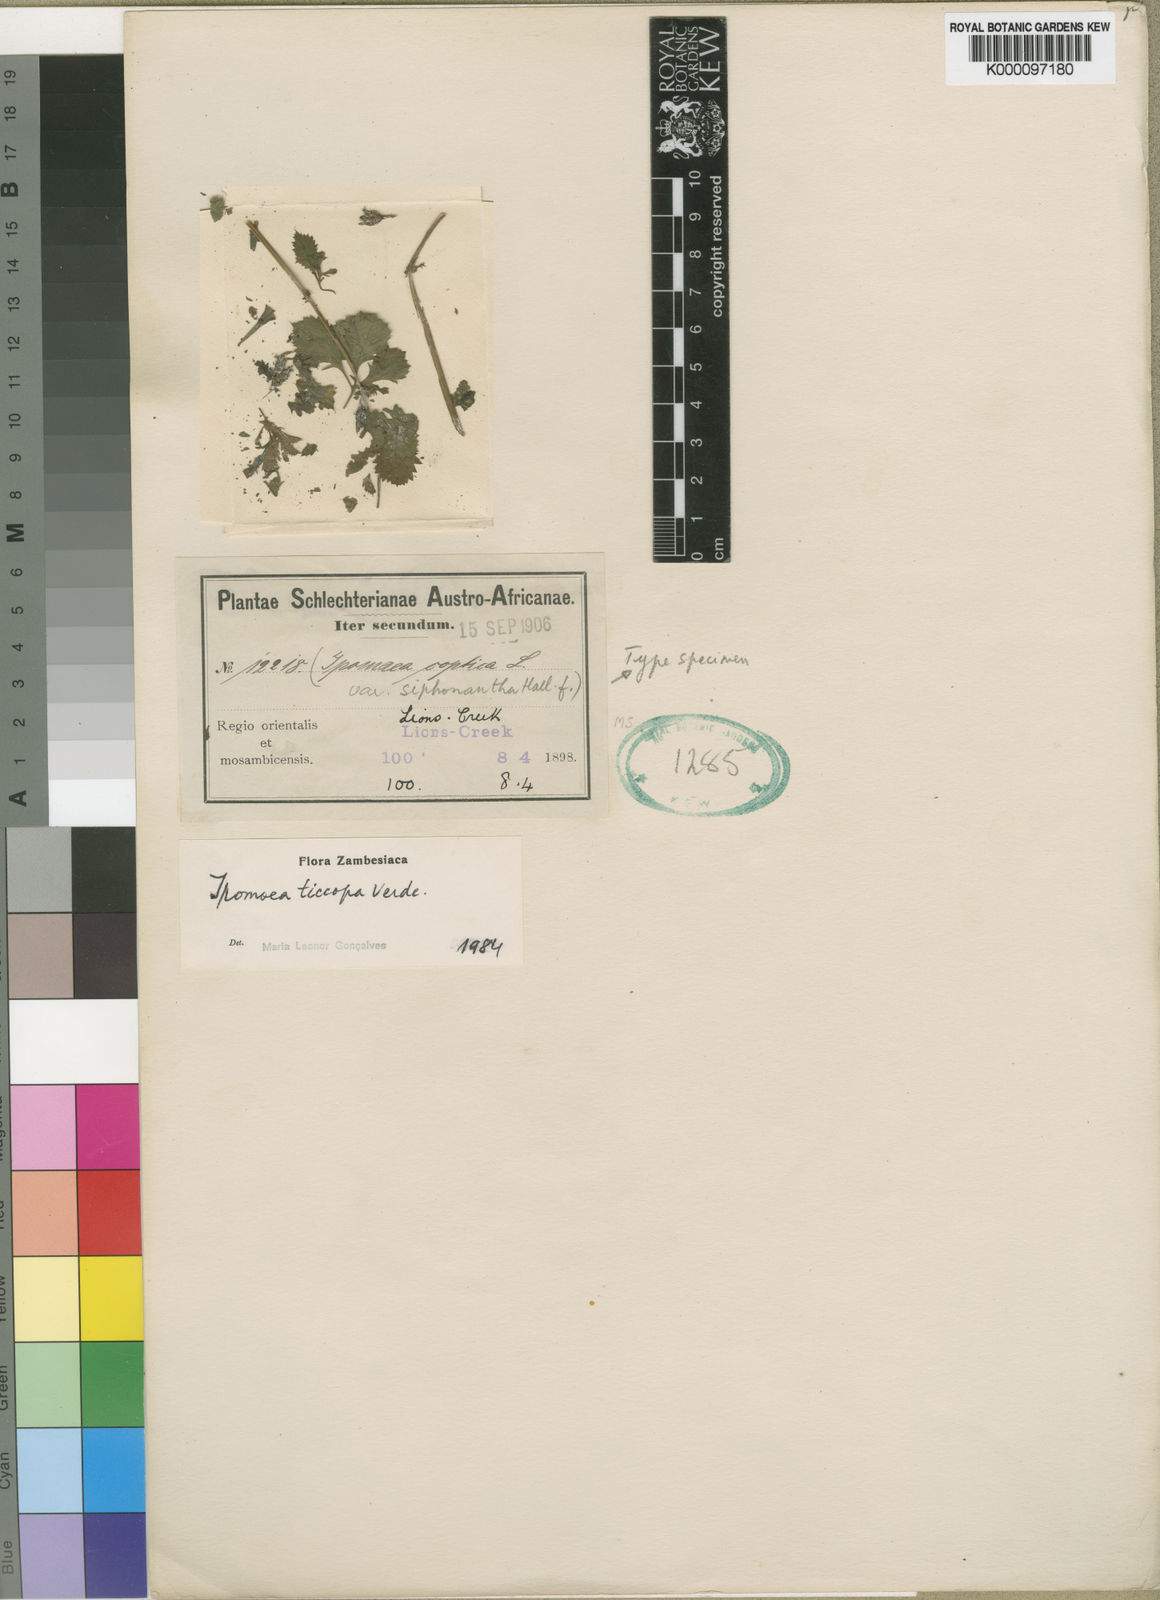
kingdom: Plantae
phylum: Tracheophyta
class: Magnoliopsida
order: Solanales
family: Convolvulaceae
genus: Ipomoea
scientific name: Ipomoea ticcopa
